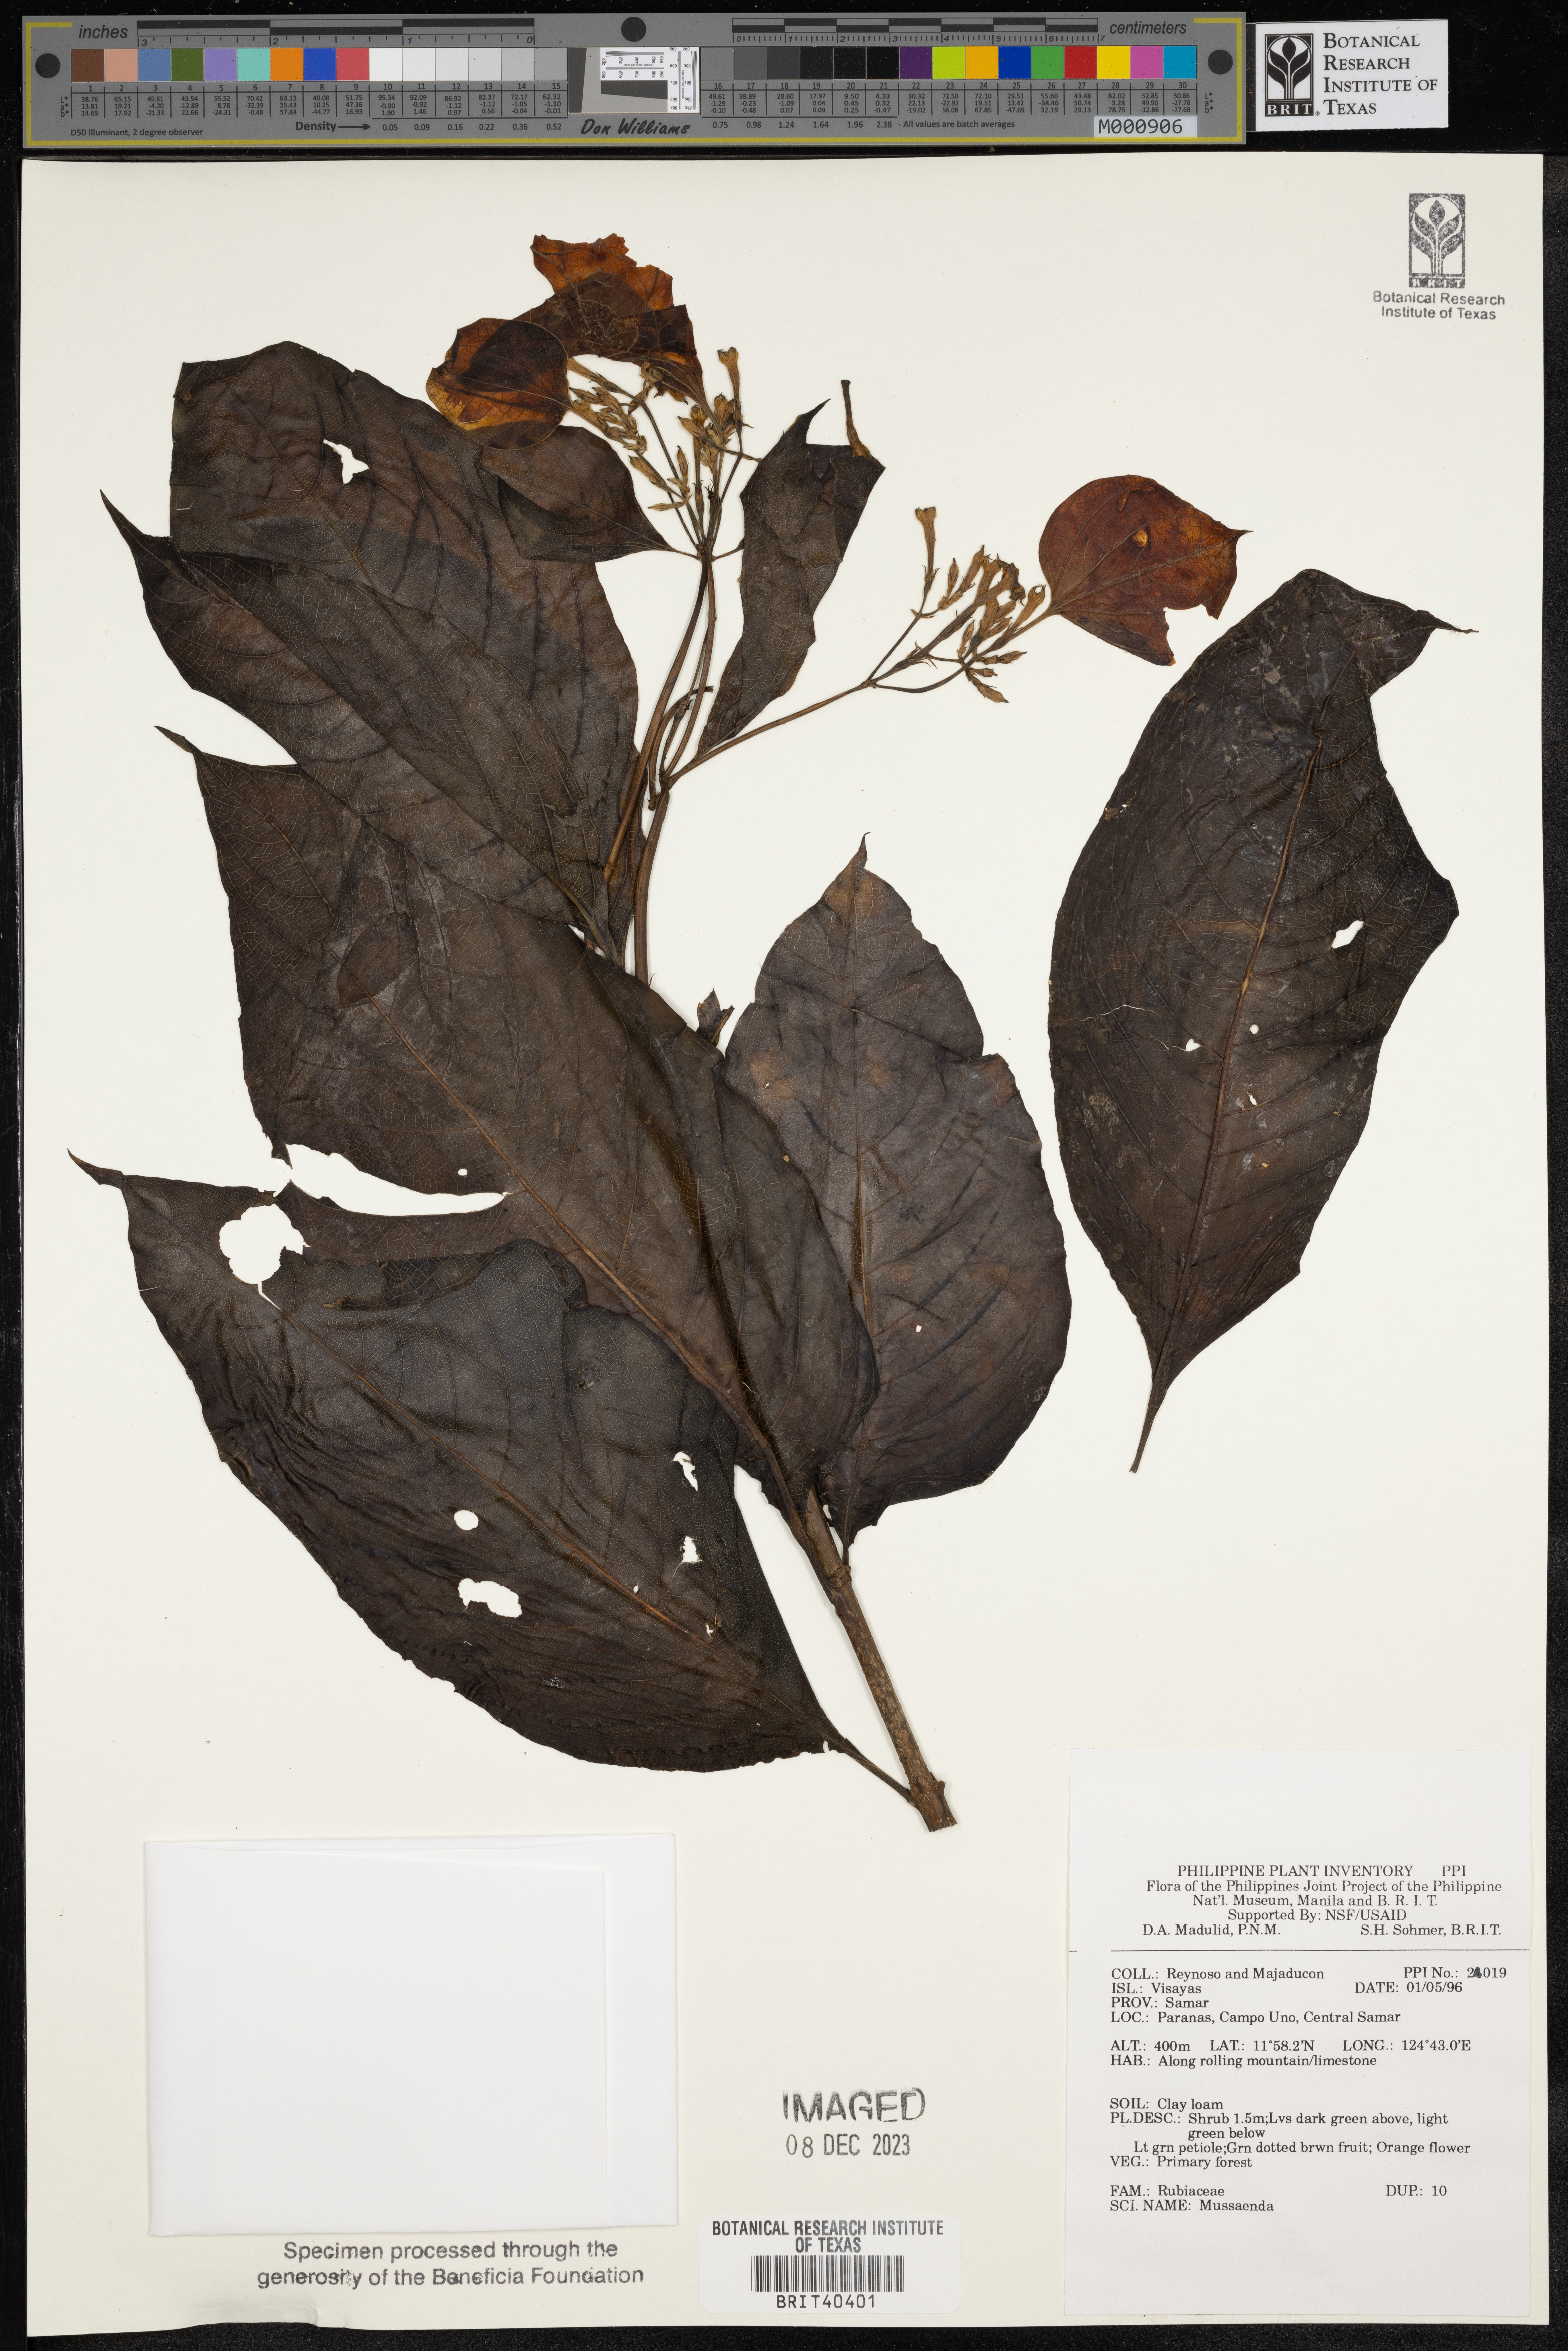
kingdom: Plantae
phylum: Tracheophyta
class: Magnoliopsida
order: Gentianales
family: Rubiaceae
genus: Mussaenda
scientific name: Mussaenda
